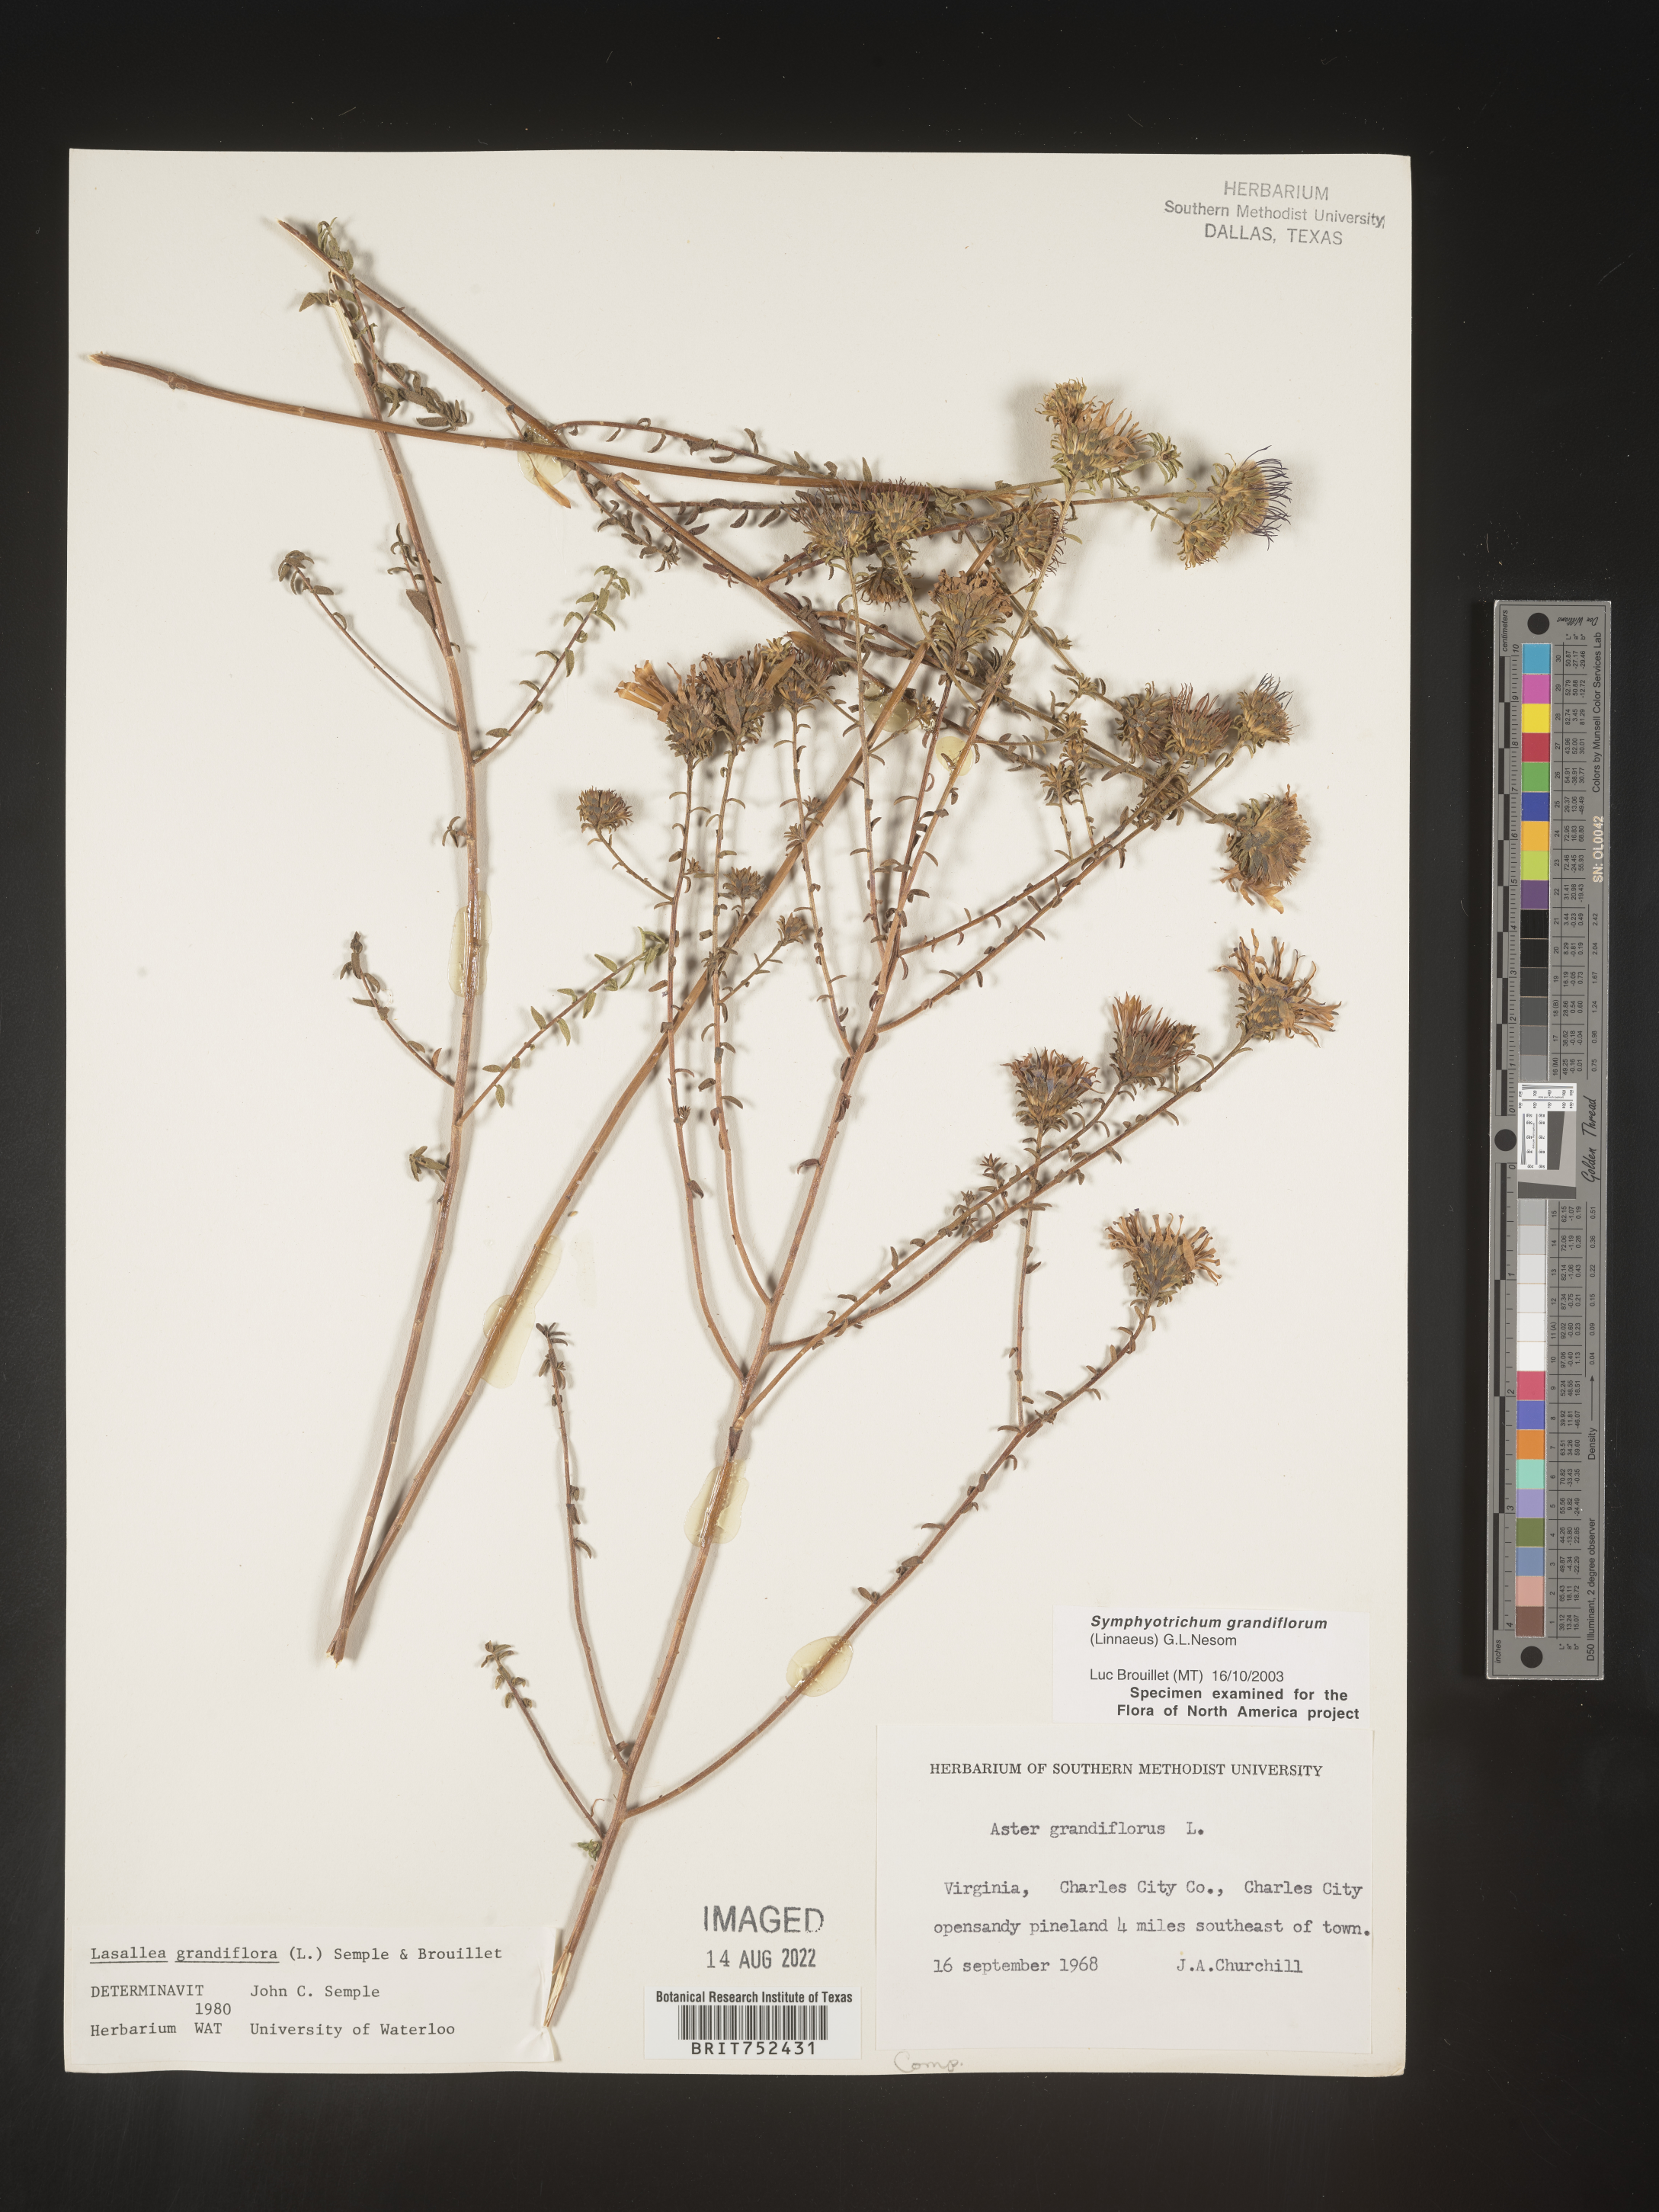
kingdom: Plantae
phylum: Tracheophyta
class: Magnoliopsida
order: Asterales
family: Asteraceae
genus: Symphyotrichum
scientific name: Symphyotrichum grandiflorum
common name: Big-head aster
